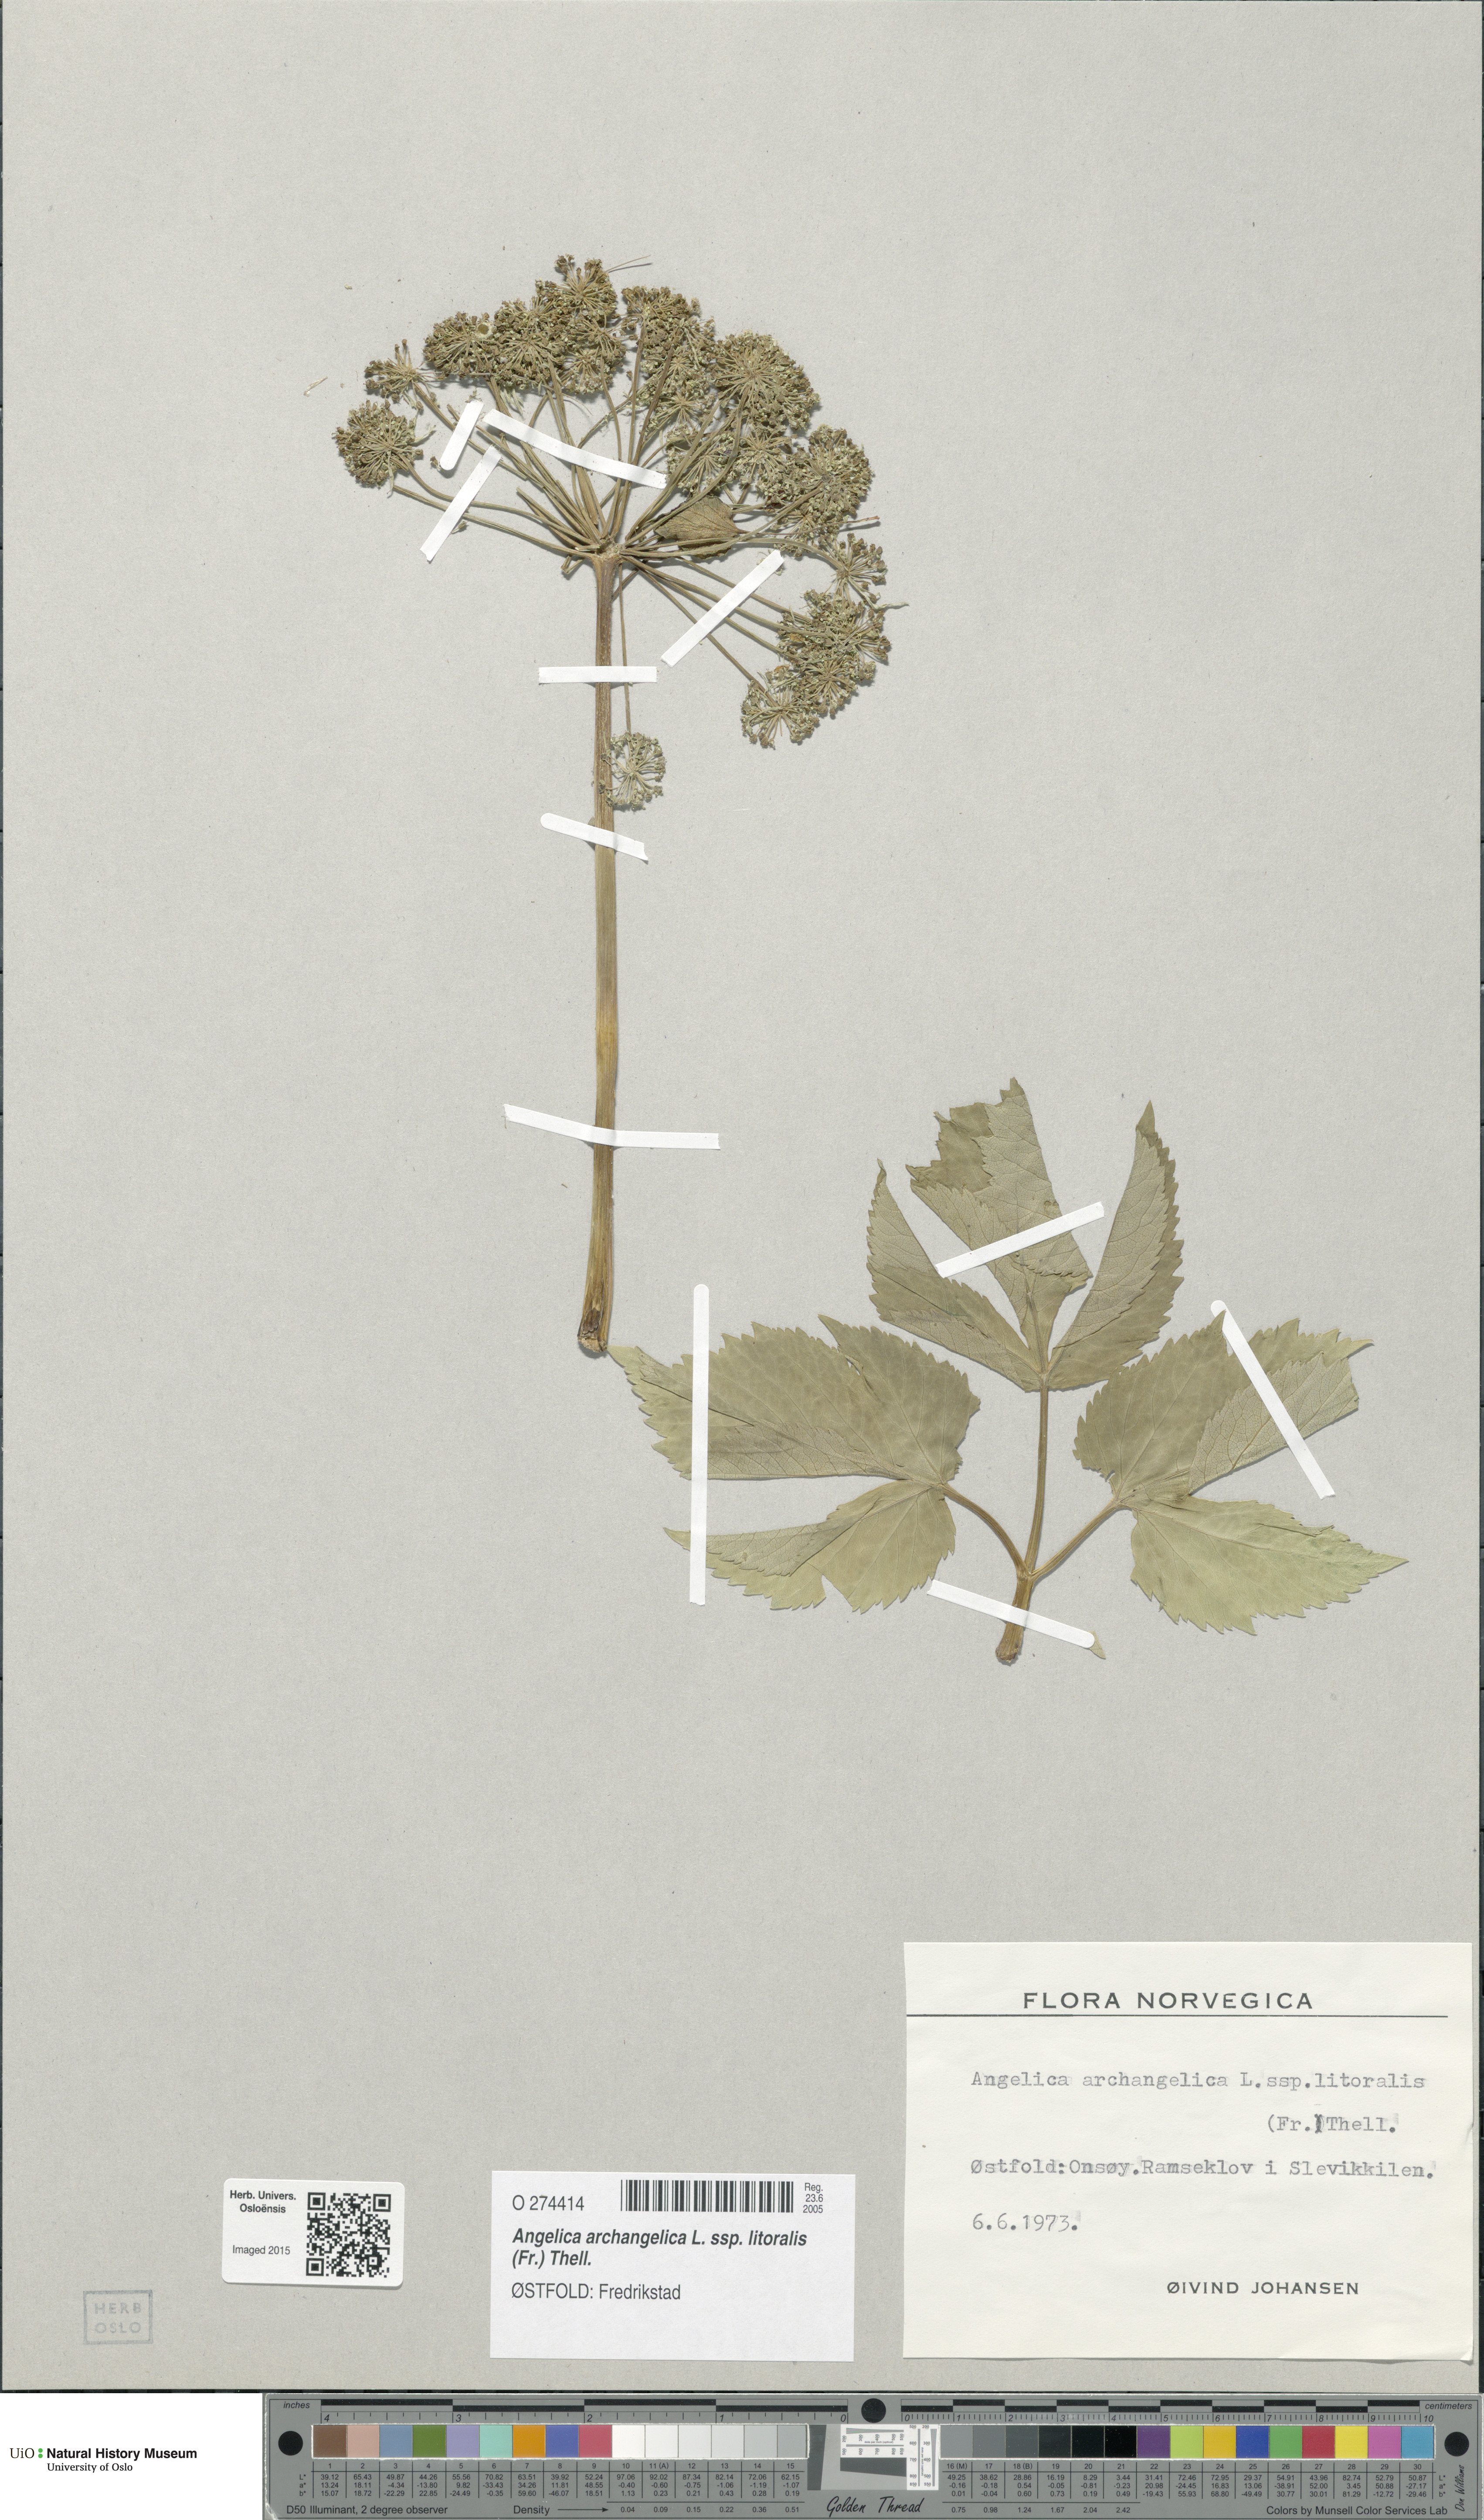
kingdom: Plantae
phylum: Tracheophyta
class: Magnoliopsida
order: Apiales
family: Apiaceae
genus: Angelica
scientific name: Angelica archangelica
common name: Garden angelica
